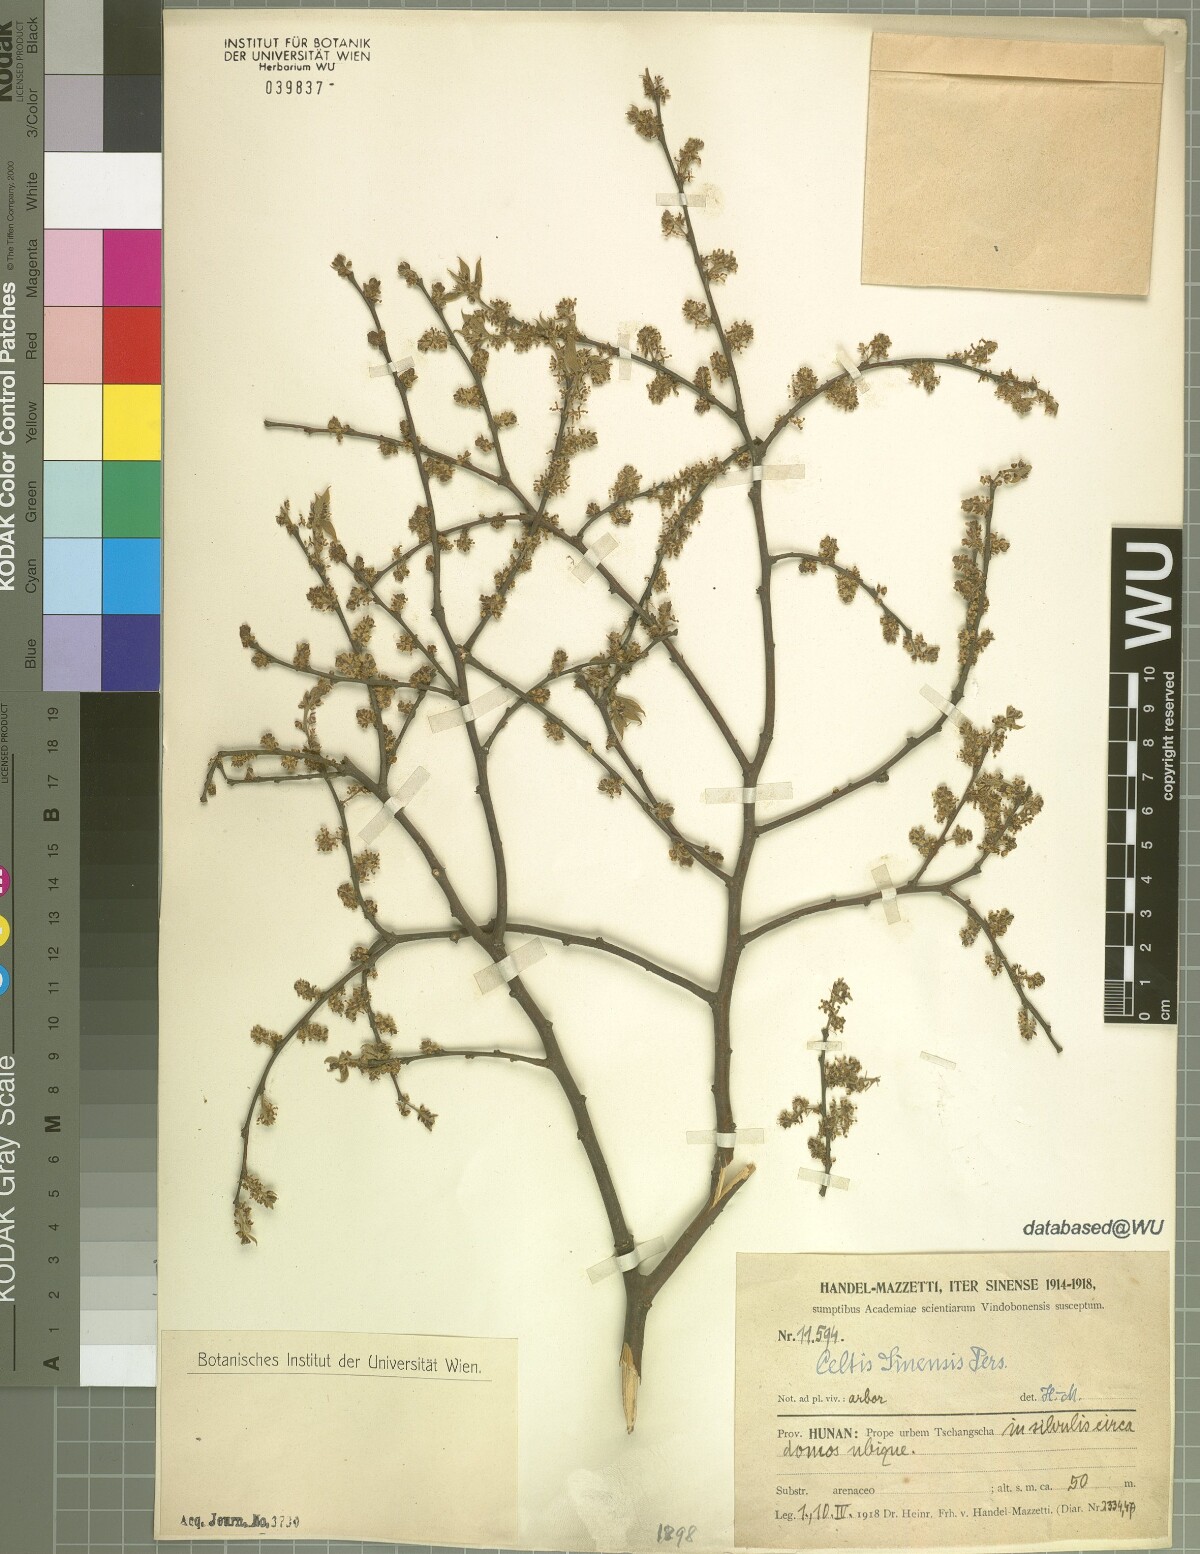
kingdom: Plantae
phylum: Tracheophyta
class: Magnoliopsida
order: Rosales
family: Cannabaceae
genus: Celtis
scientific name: Celtis sinensis
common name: Chinese hackberry
